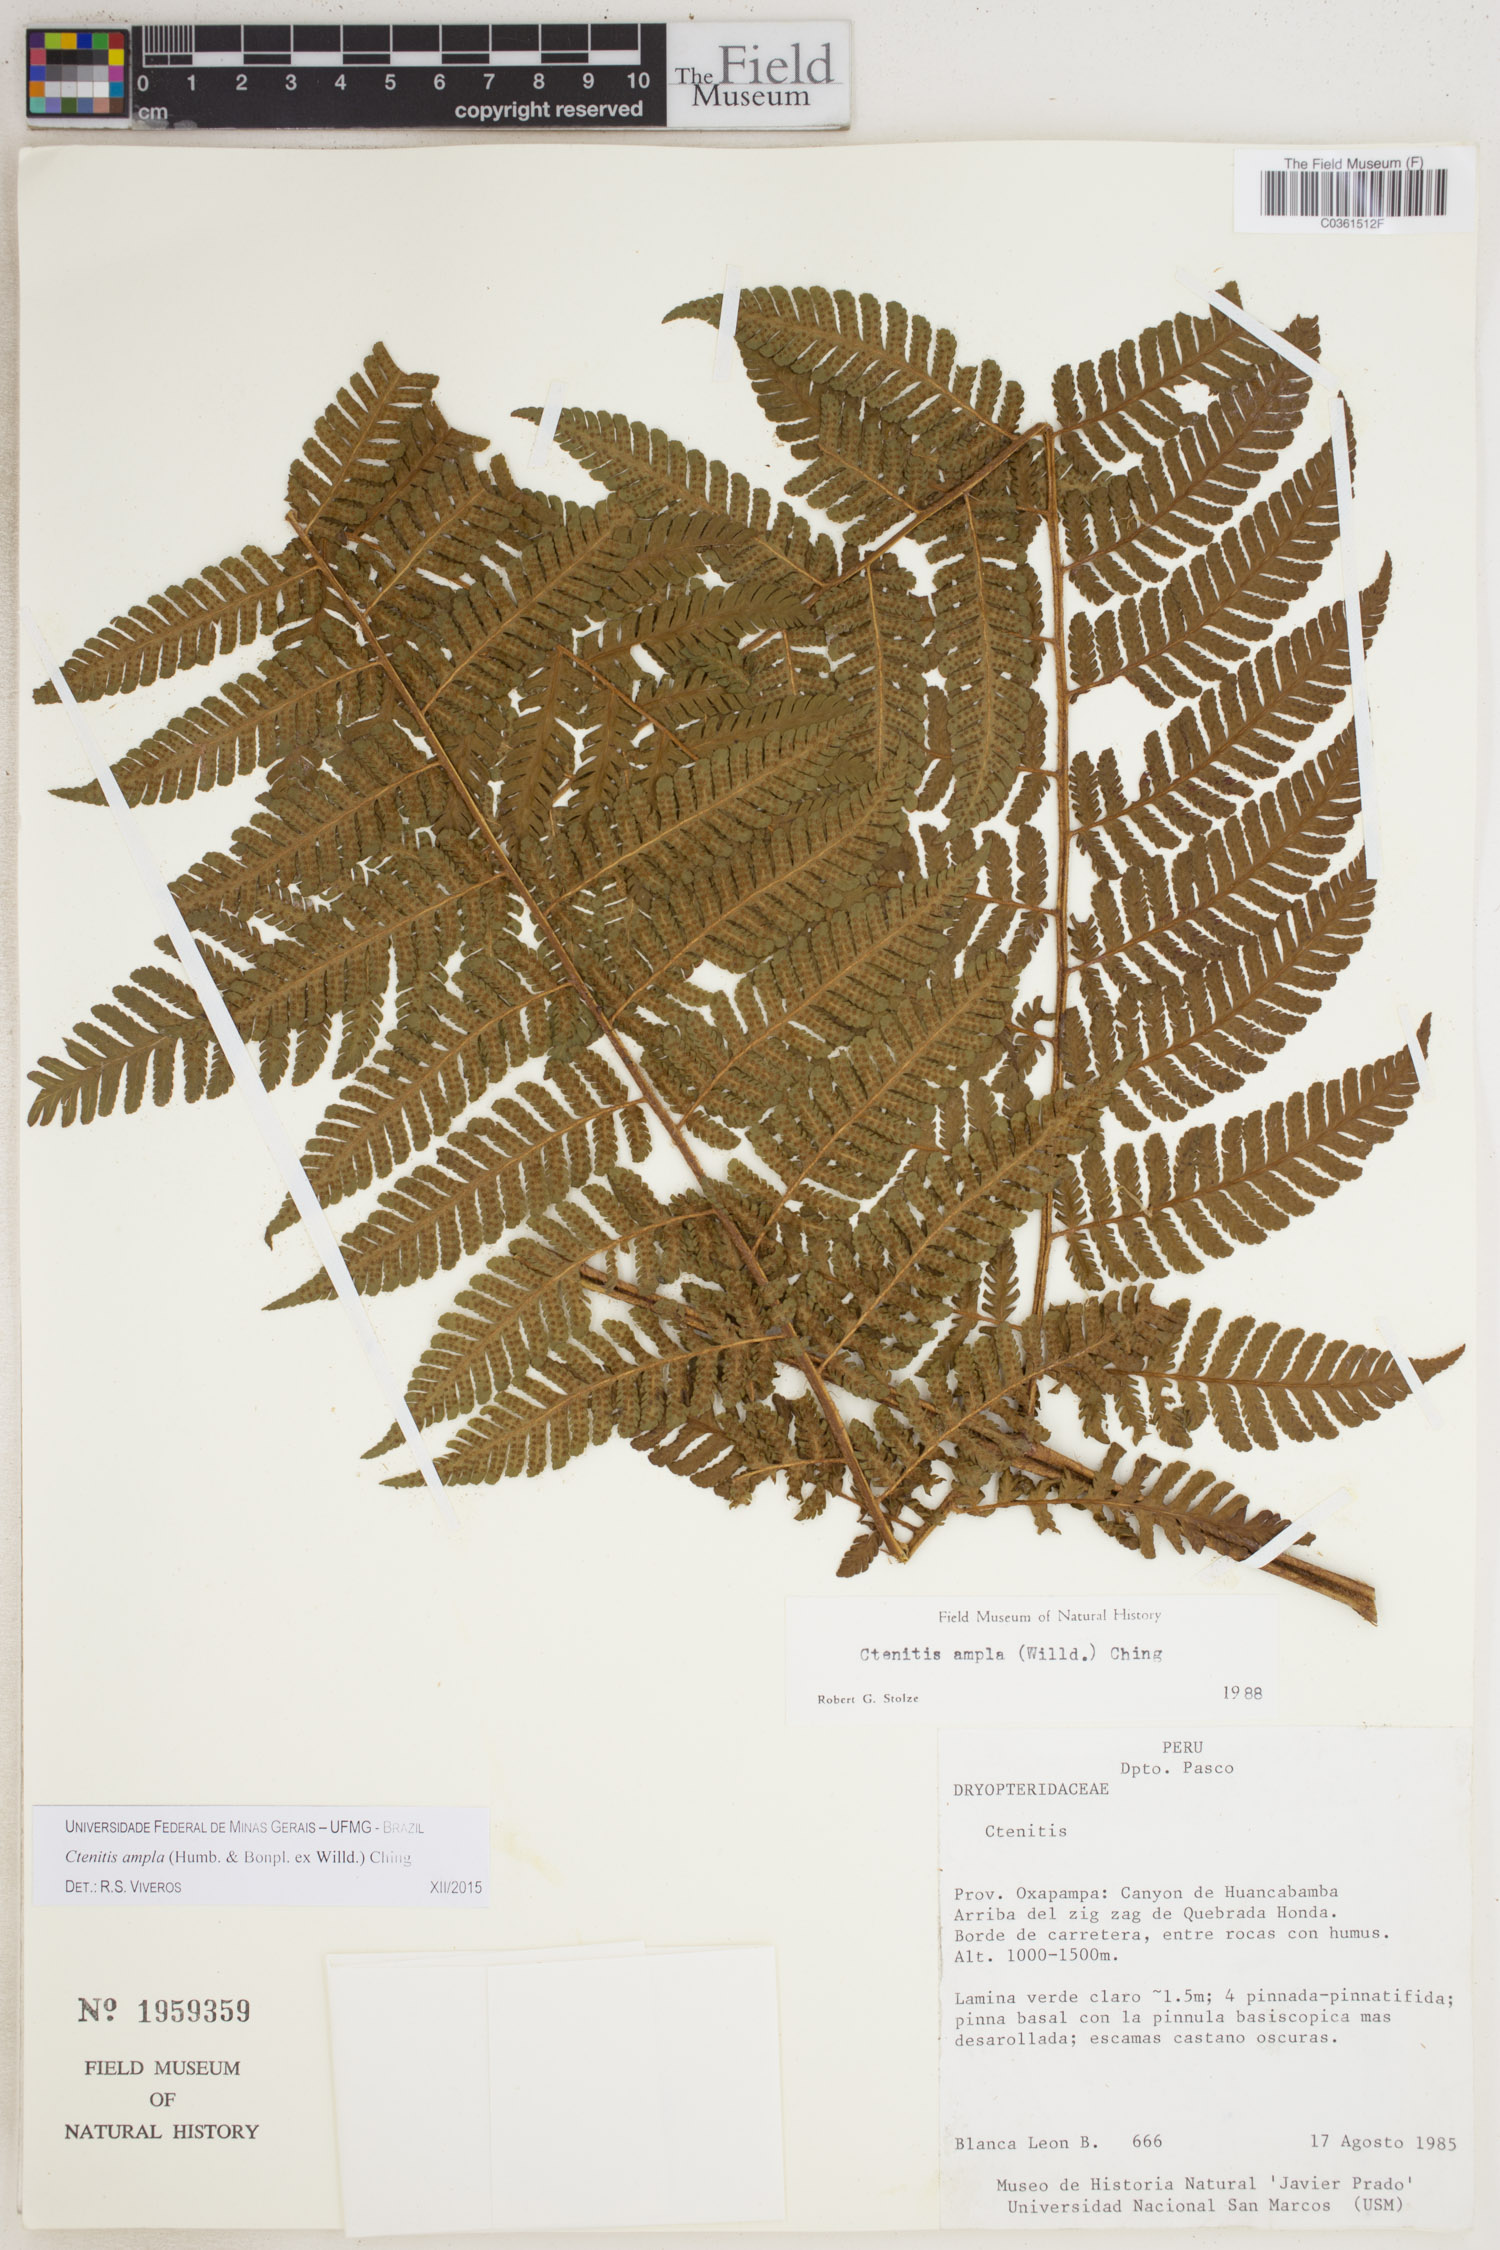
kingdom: Plantae
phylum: Tracheophyta
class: Polypodiopsida
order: Polypodiales
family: Dryopteridaceae
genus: Ctenitis
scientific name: Ctenitis sloanei
